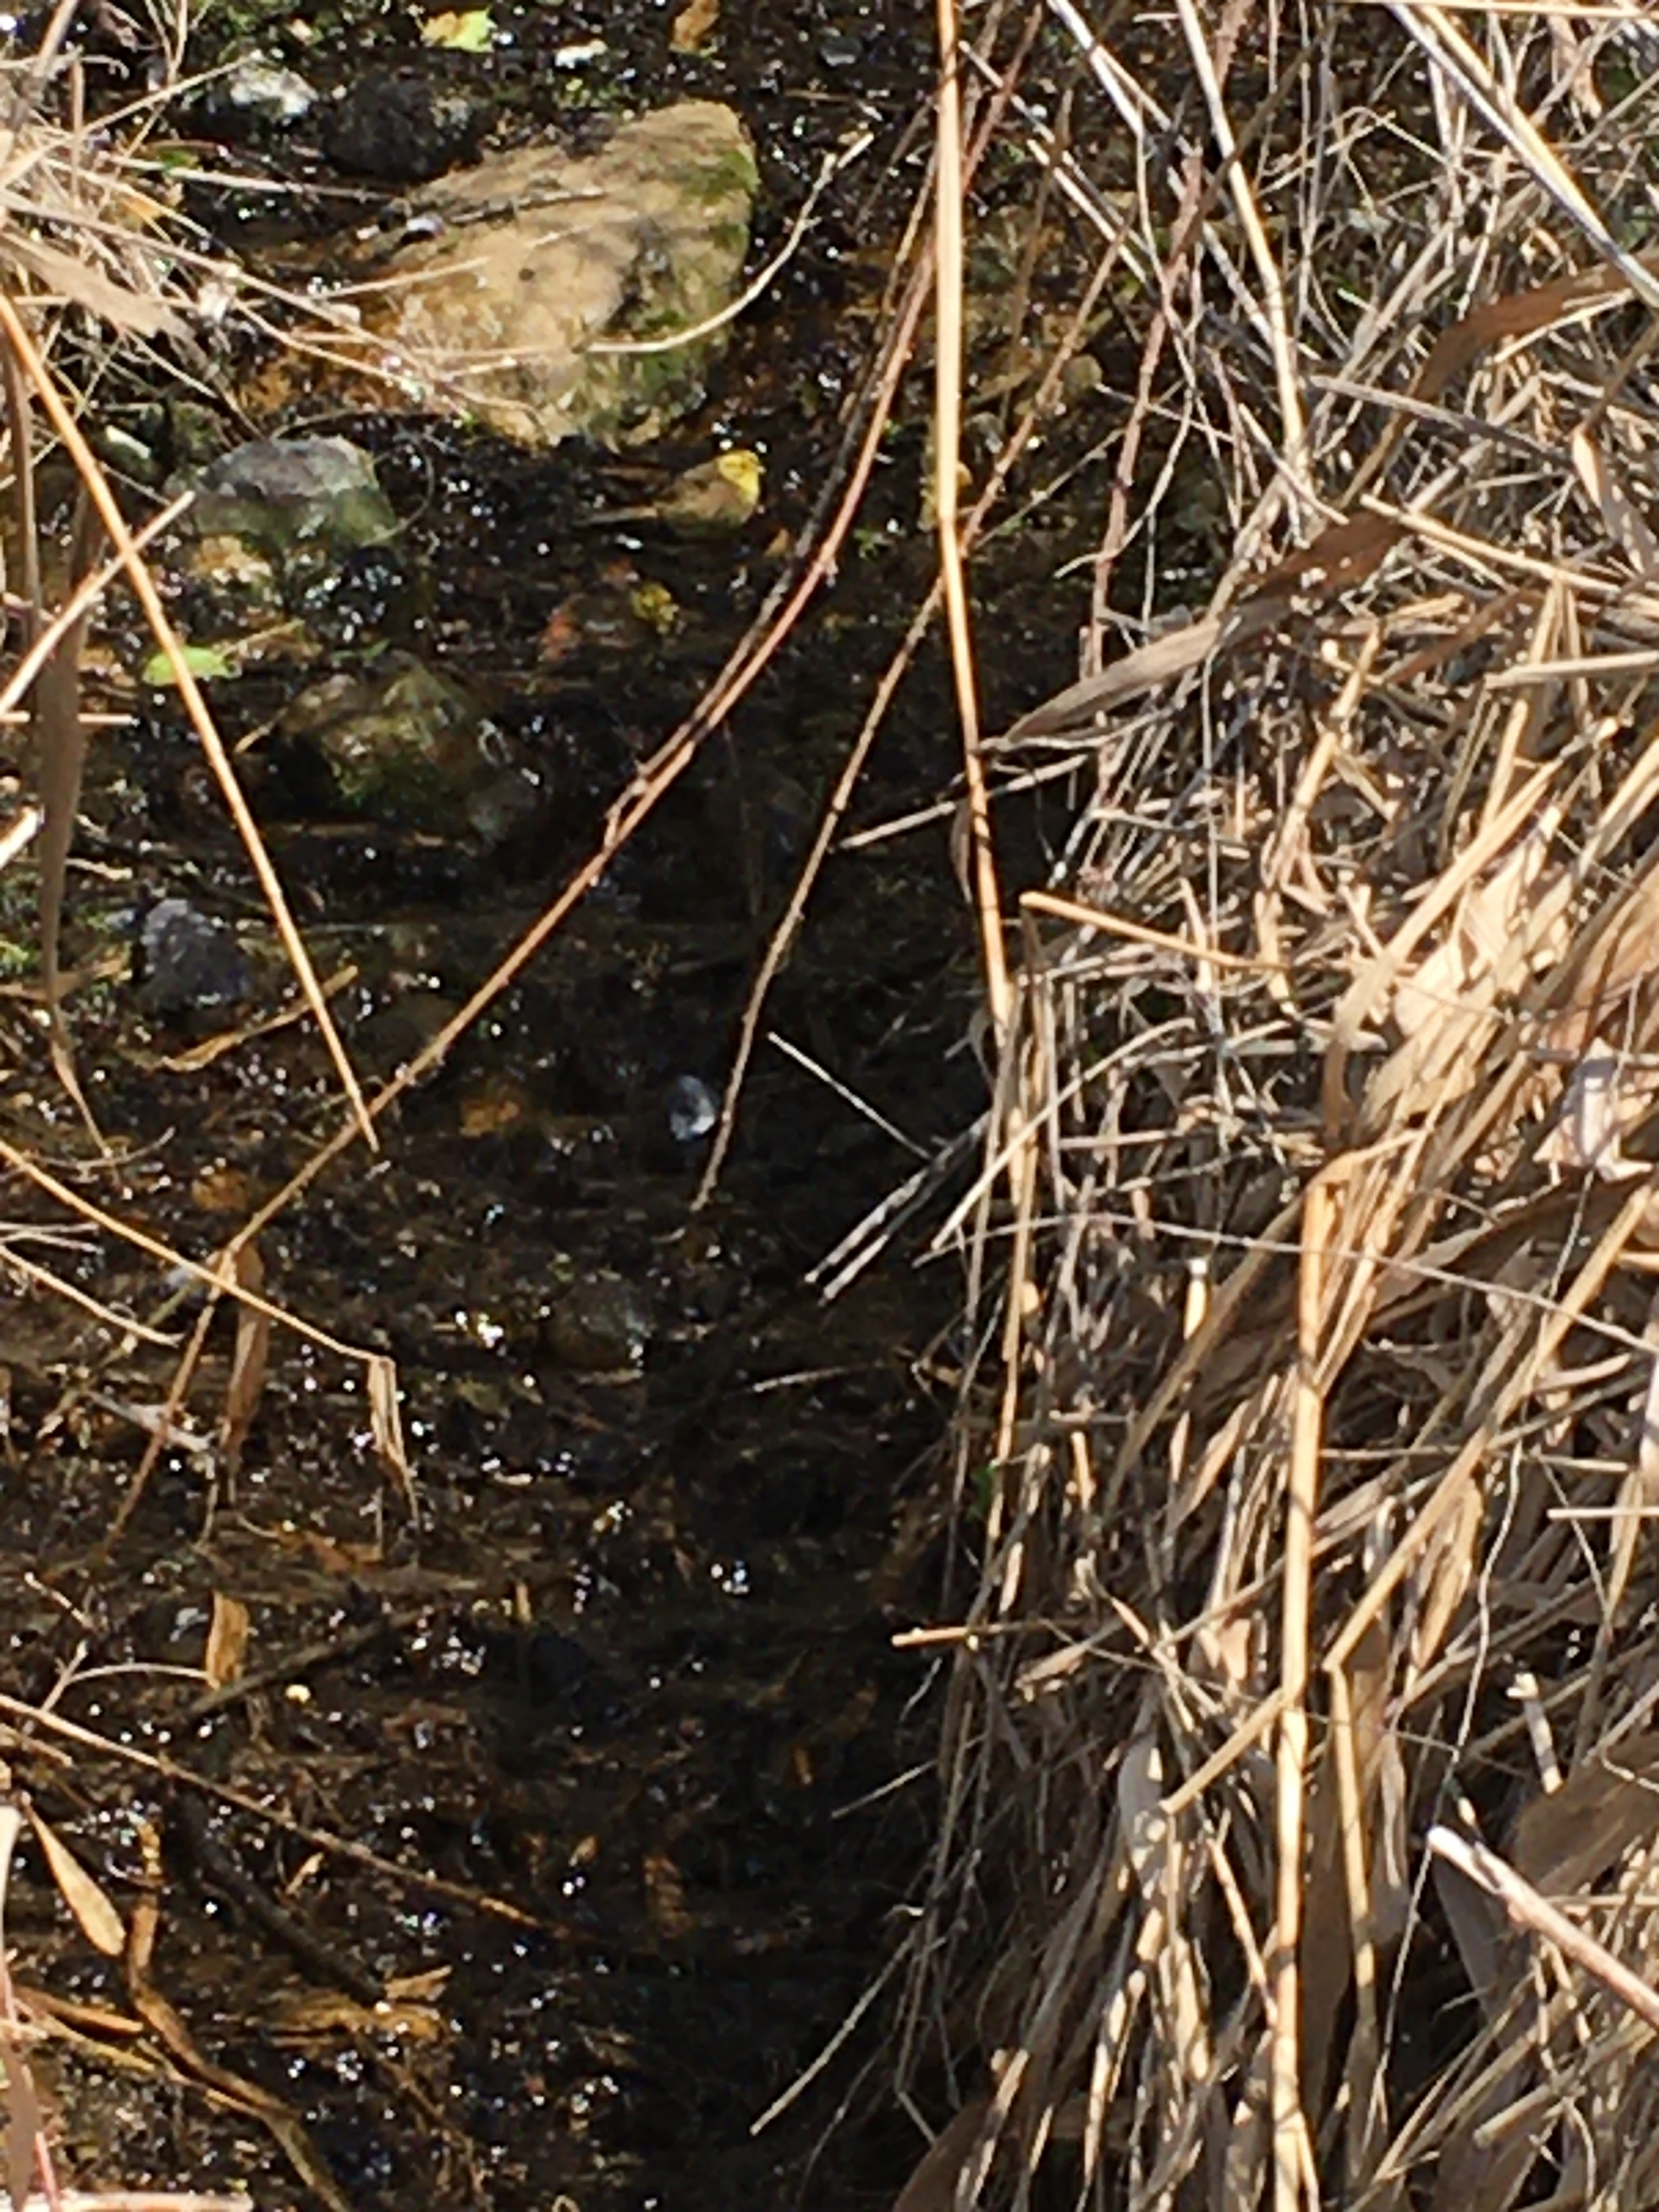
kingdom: Animalia
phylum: Chordata
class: Aves
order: Passeriformes
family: Emberizidae
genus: Emberiza
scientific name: Emberiza citrinella
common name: Gulspurv
